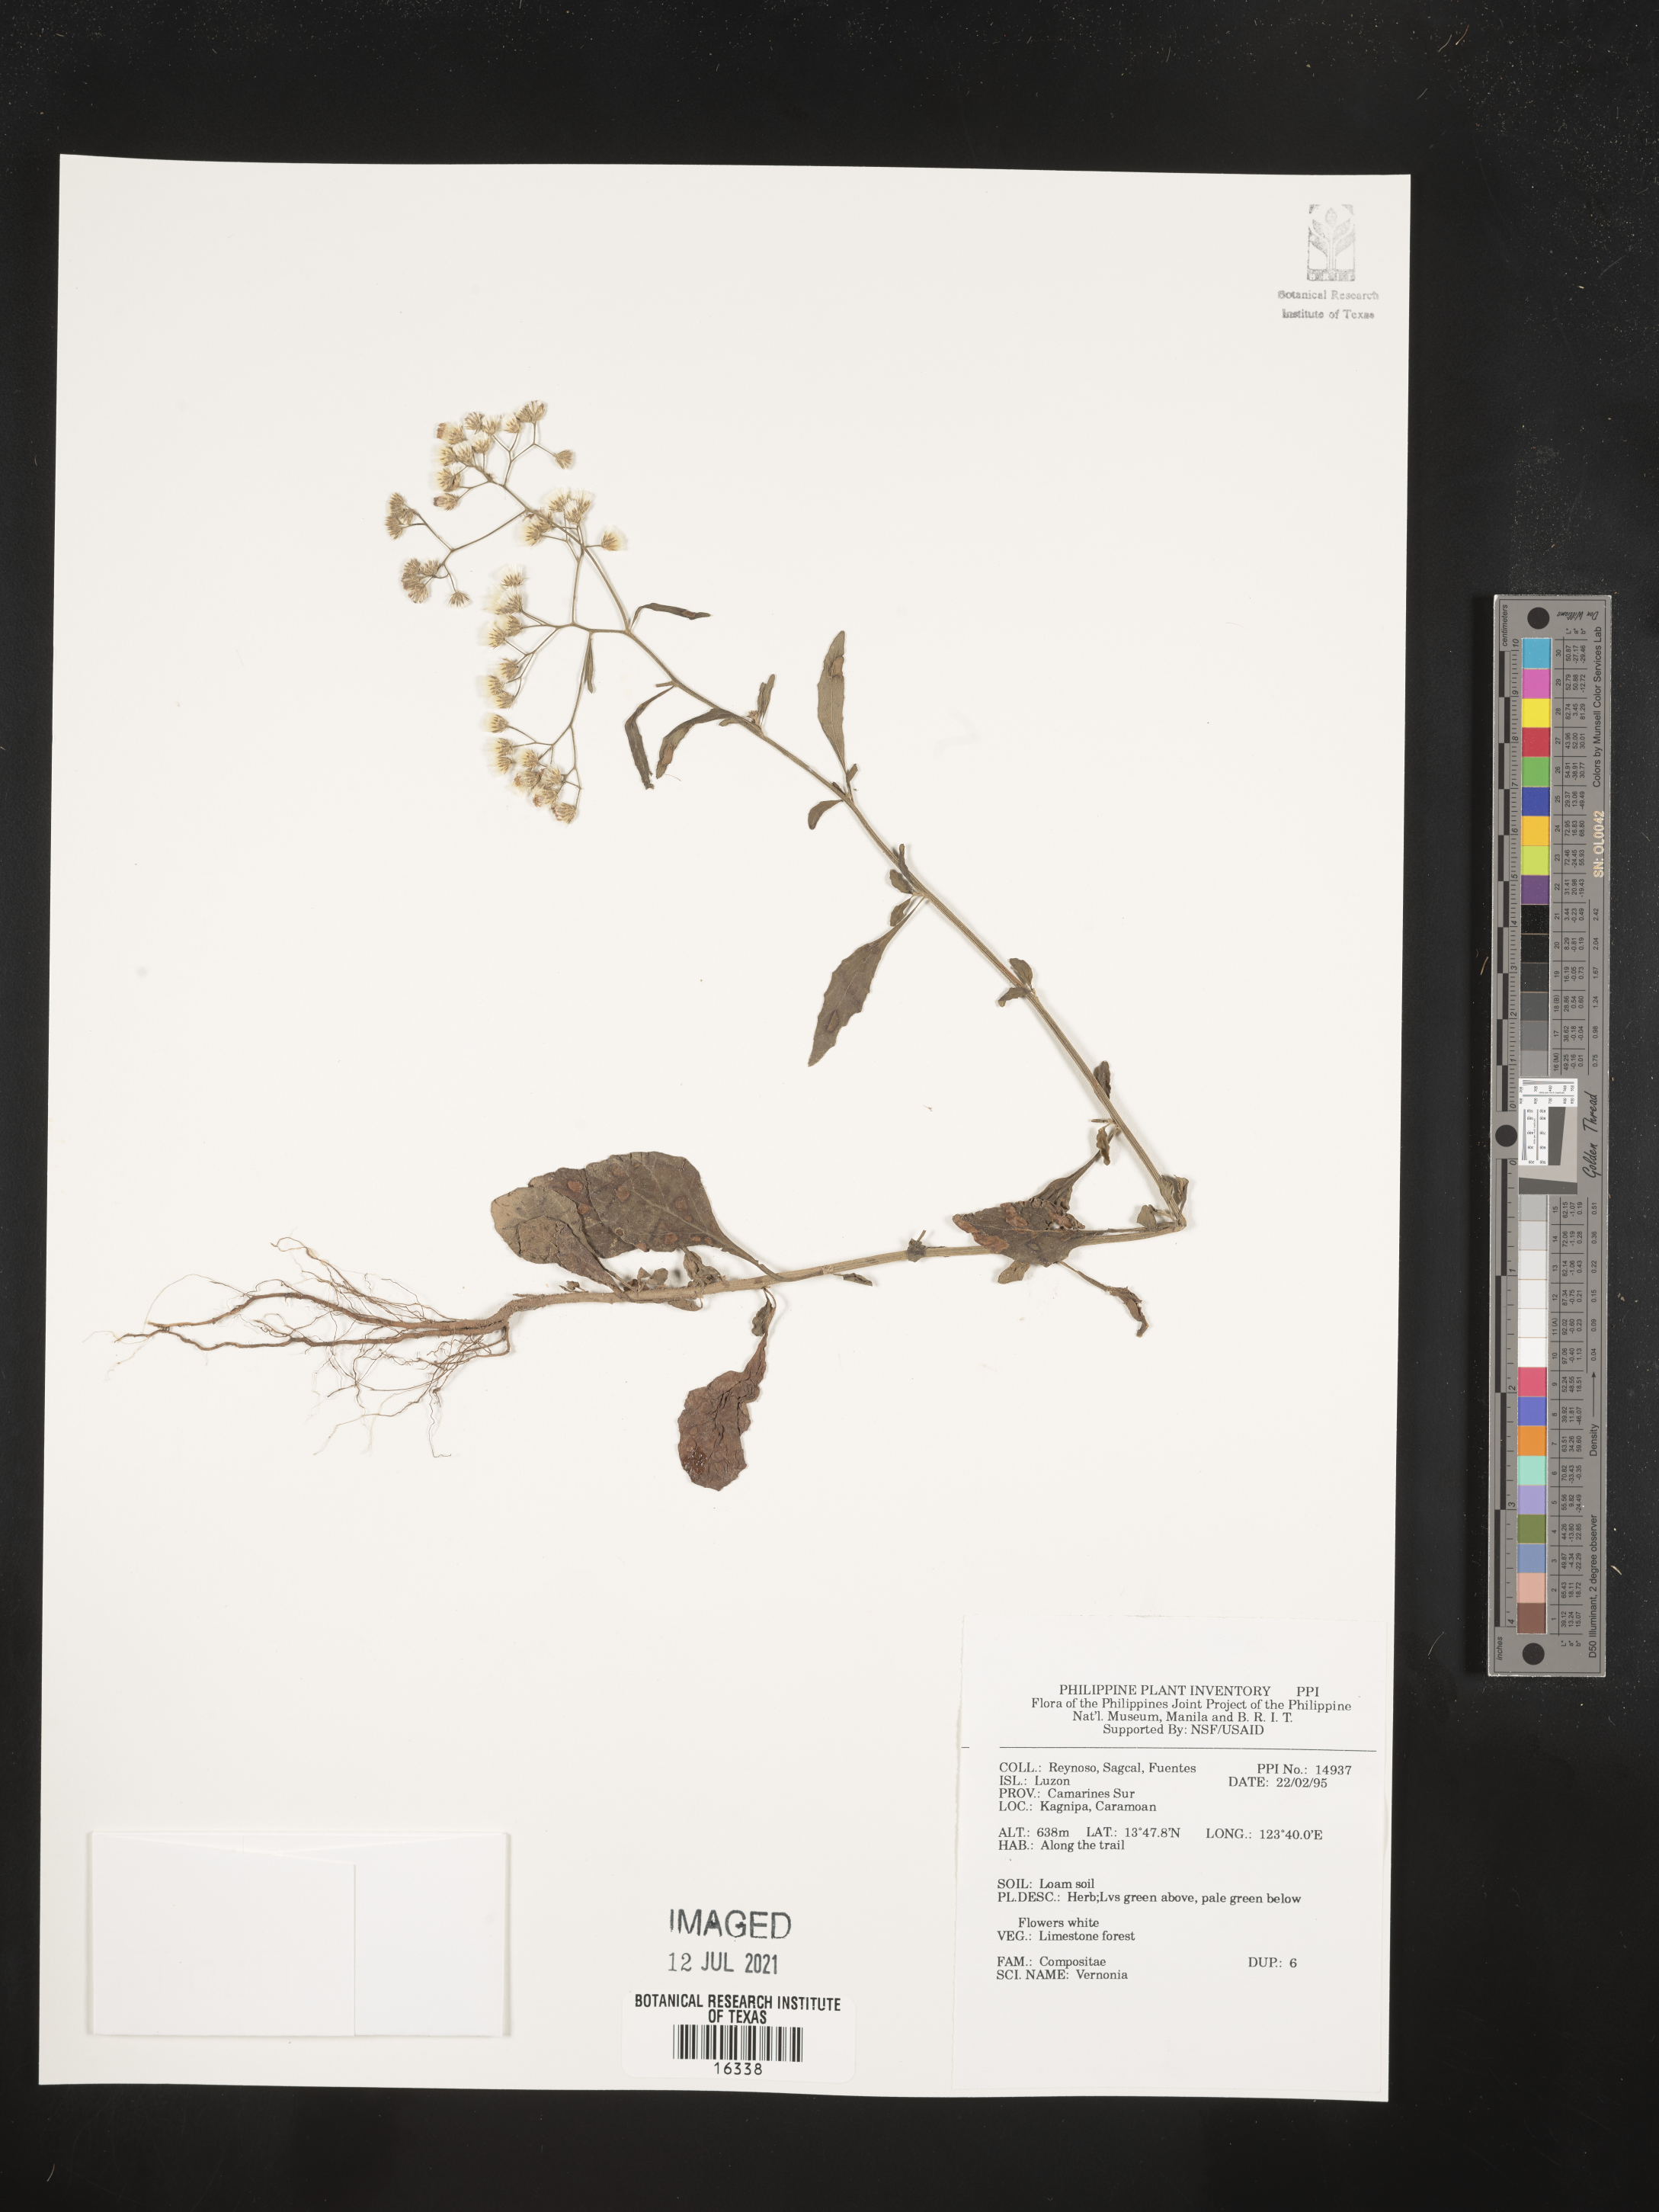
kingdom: Plantae
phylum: Tracheophyta
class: Magnoliopsida
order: Asterales
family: Asteraceae
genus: Vernonia
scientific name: Vernonia
